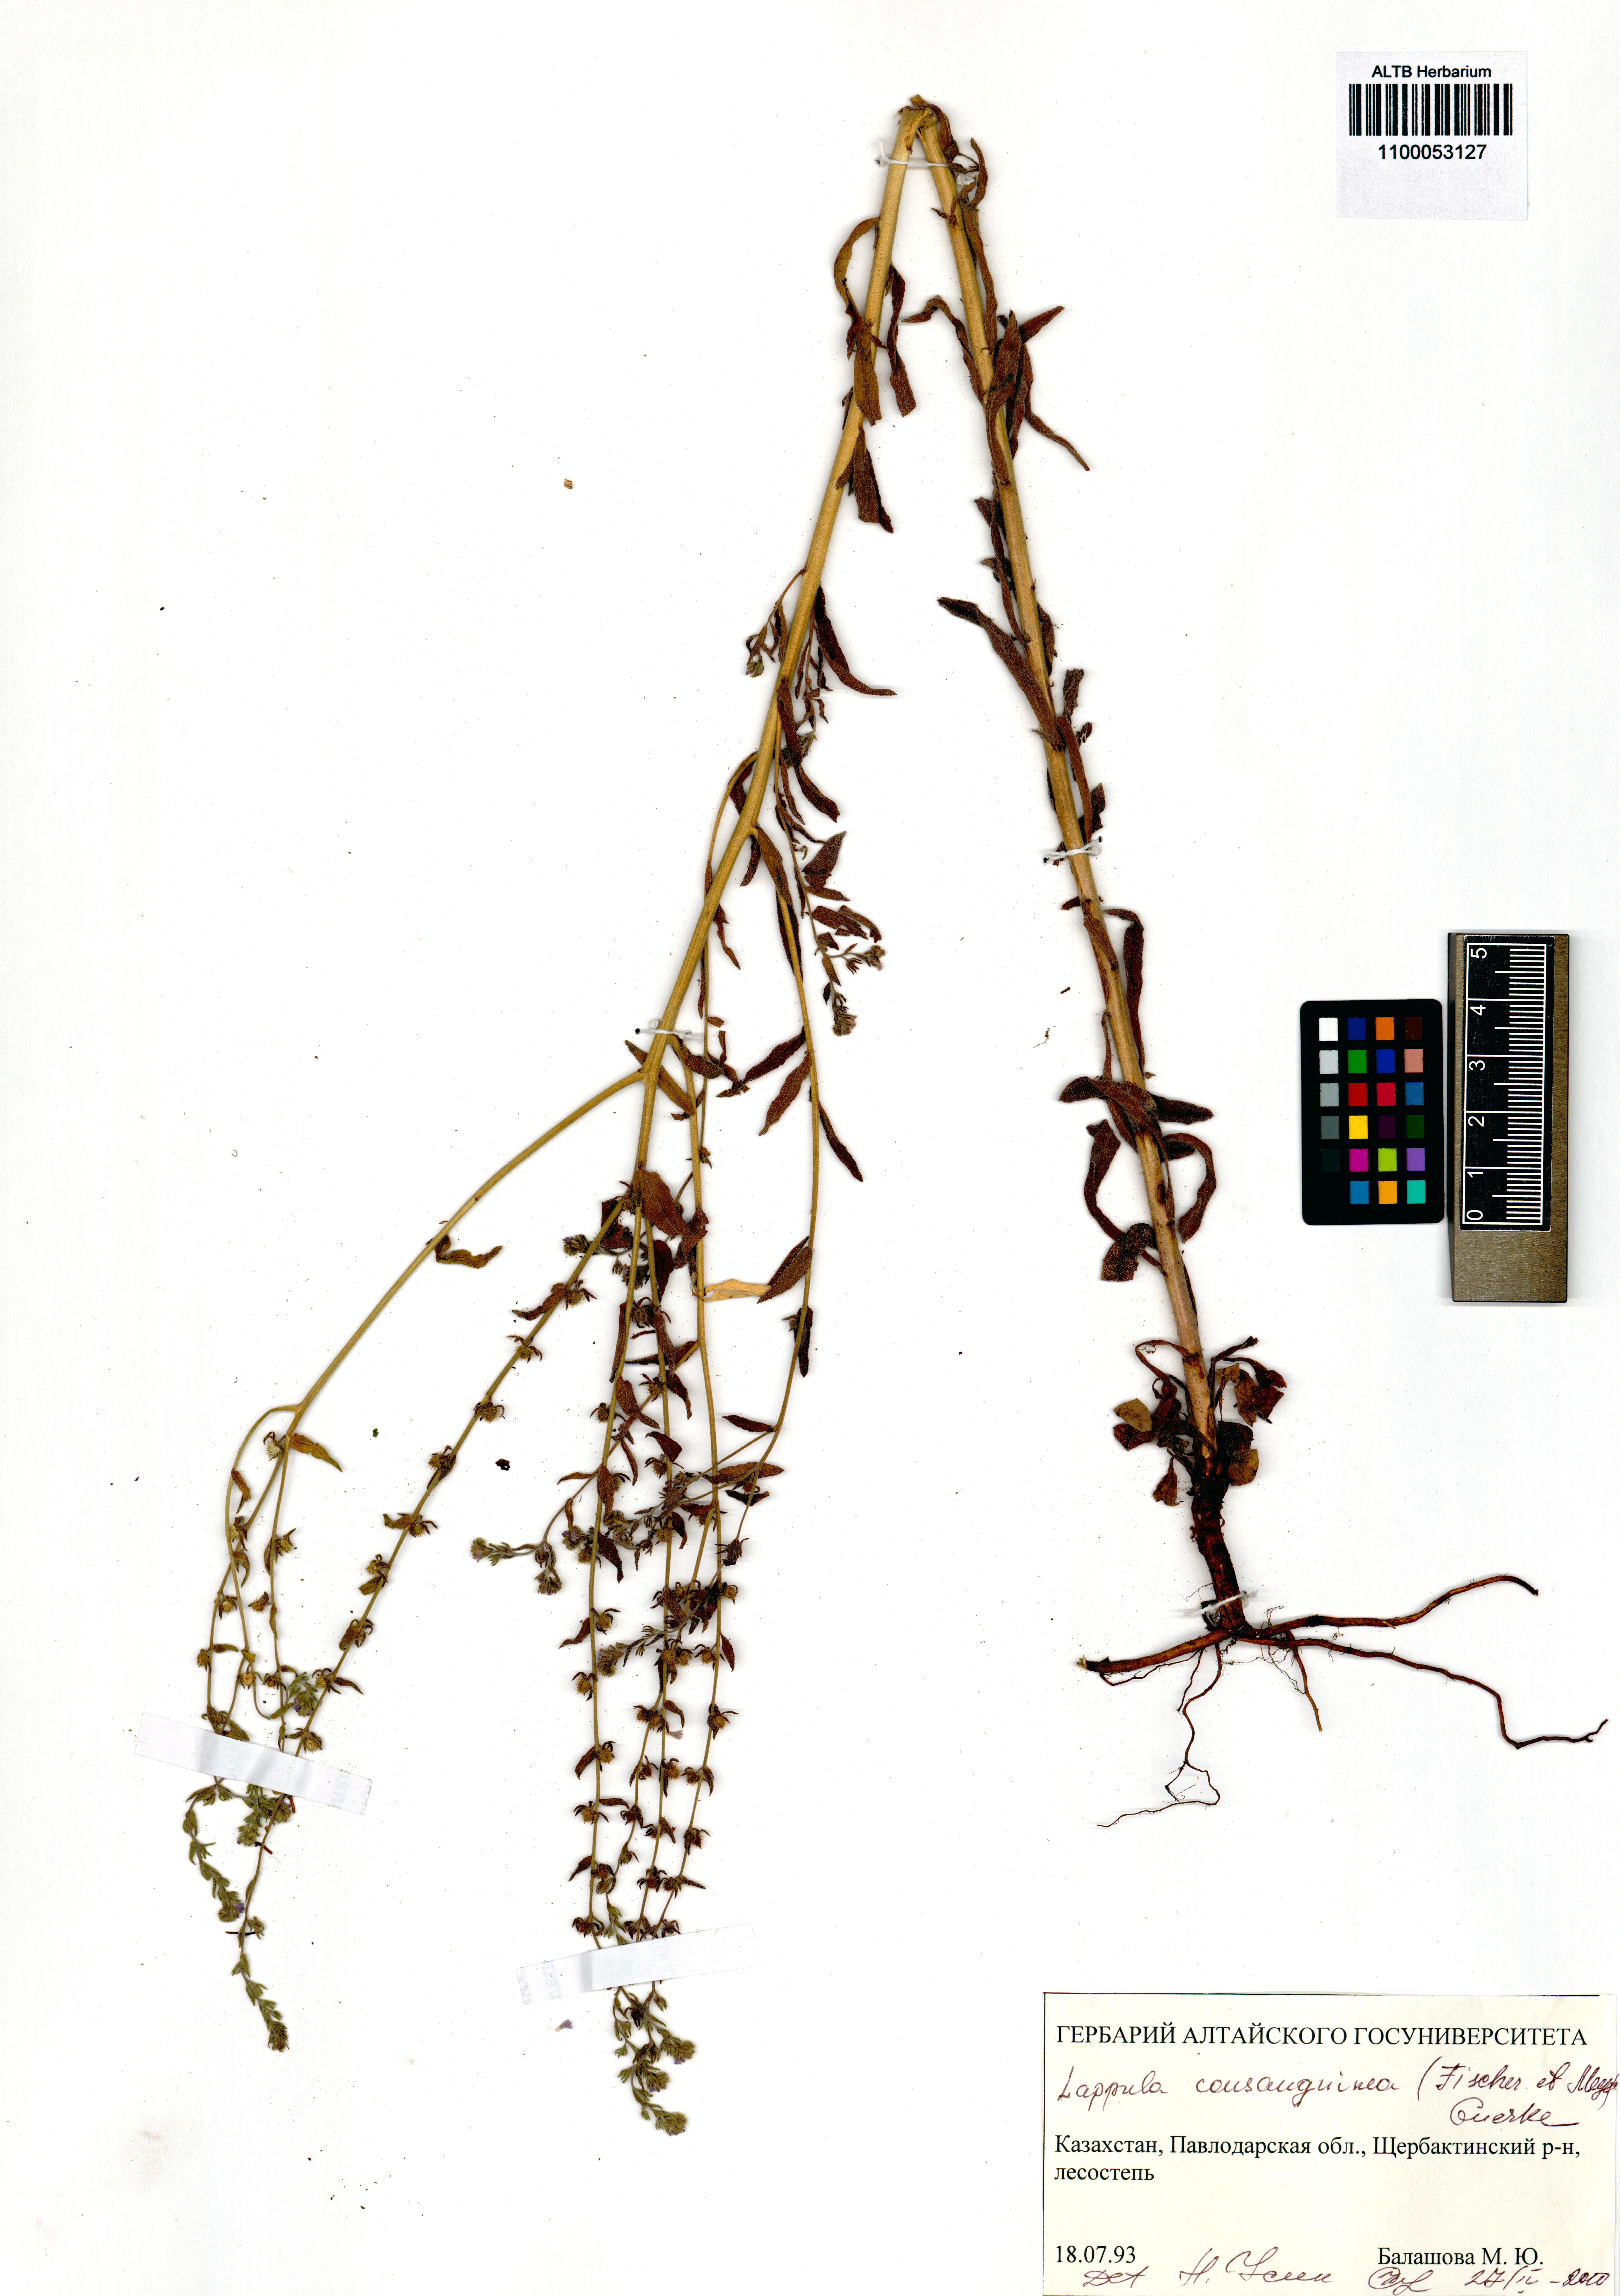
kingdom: Plantae
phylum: Tracheophyta
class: Magnoliopsida
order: Boraginales
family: Boraginaceae
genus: Lappula
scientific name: Lappula squarrosa
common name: European stickseed
